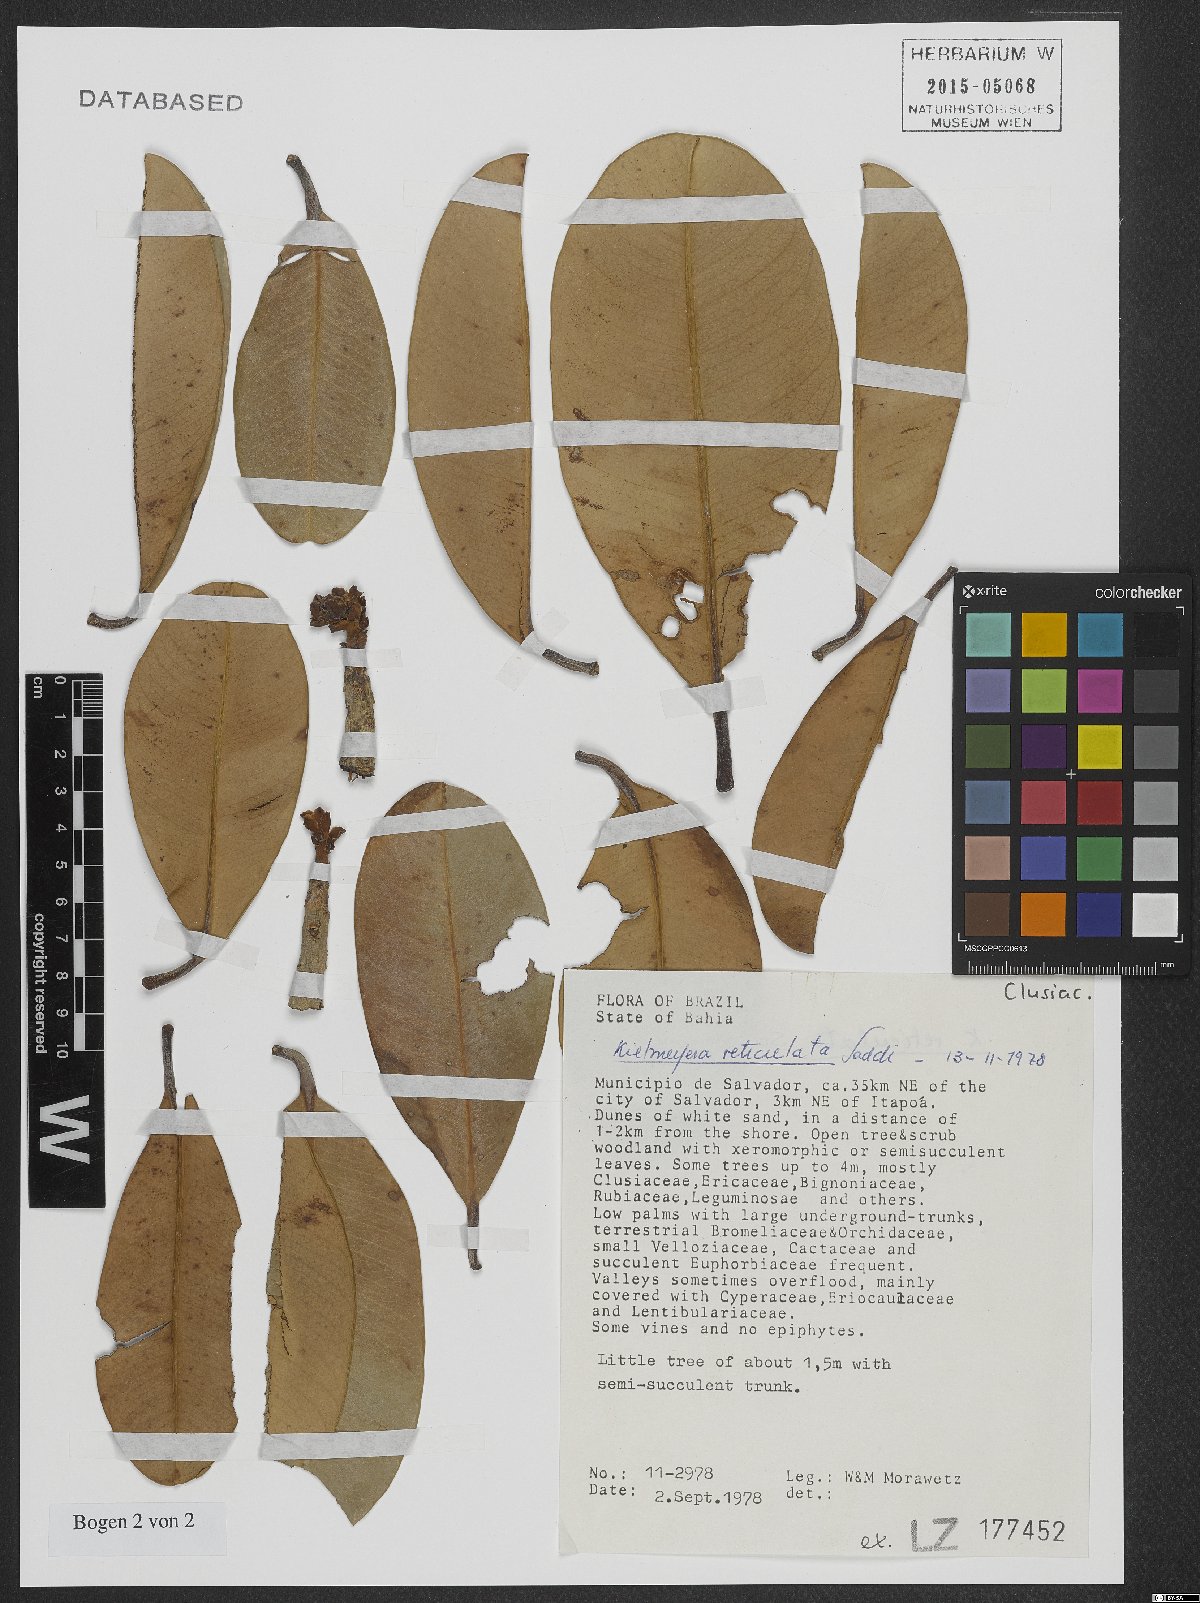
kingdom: Plantae
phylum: Tracheophyta
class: Magnoliopsida
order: Malpighiales
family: Calophyllaceae
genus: Kielmeyera
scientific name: Kielmeyera reticulata
